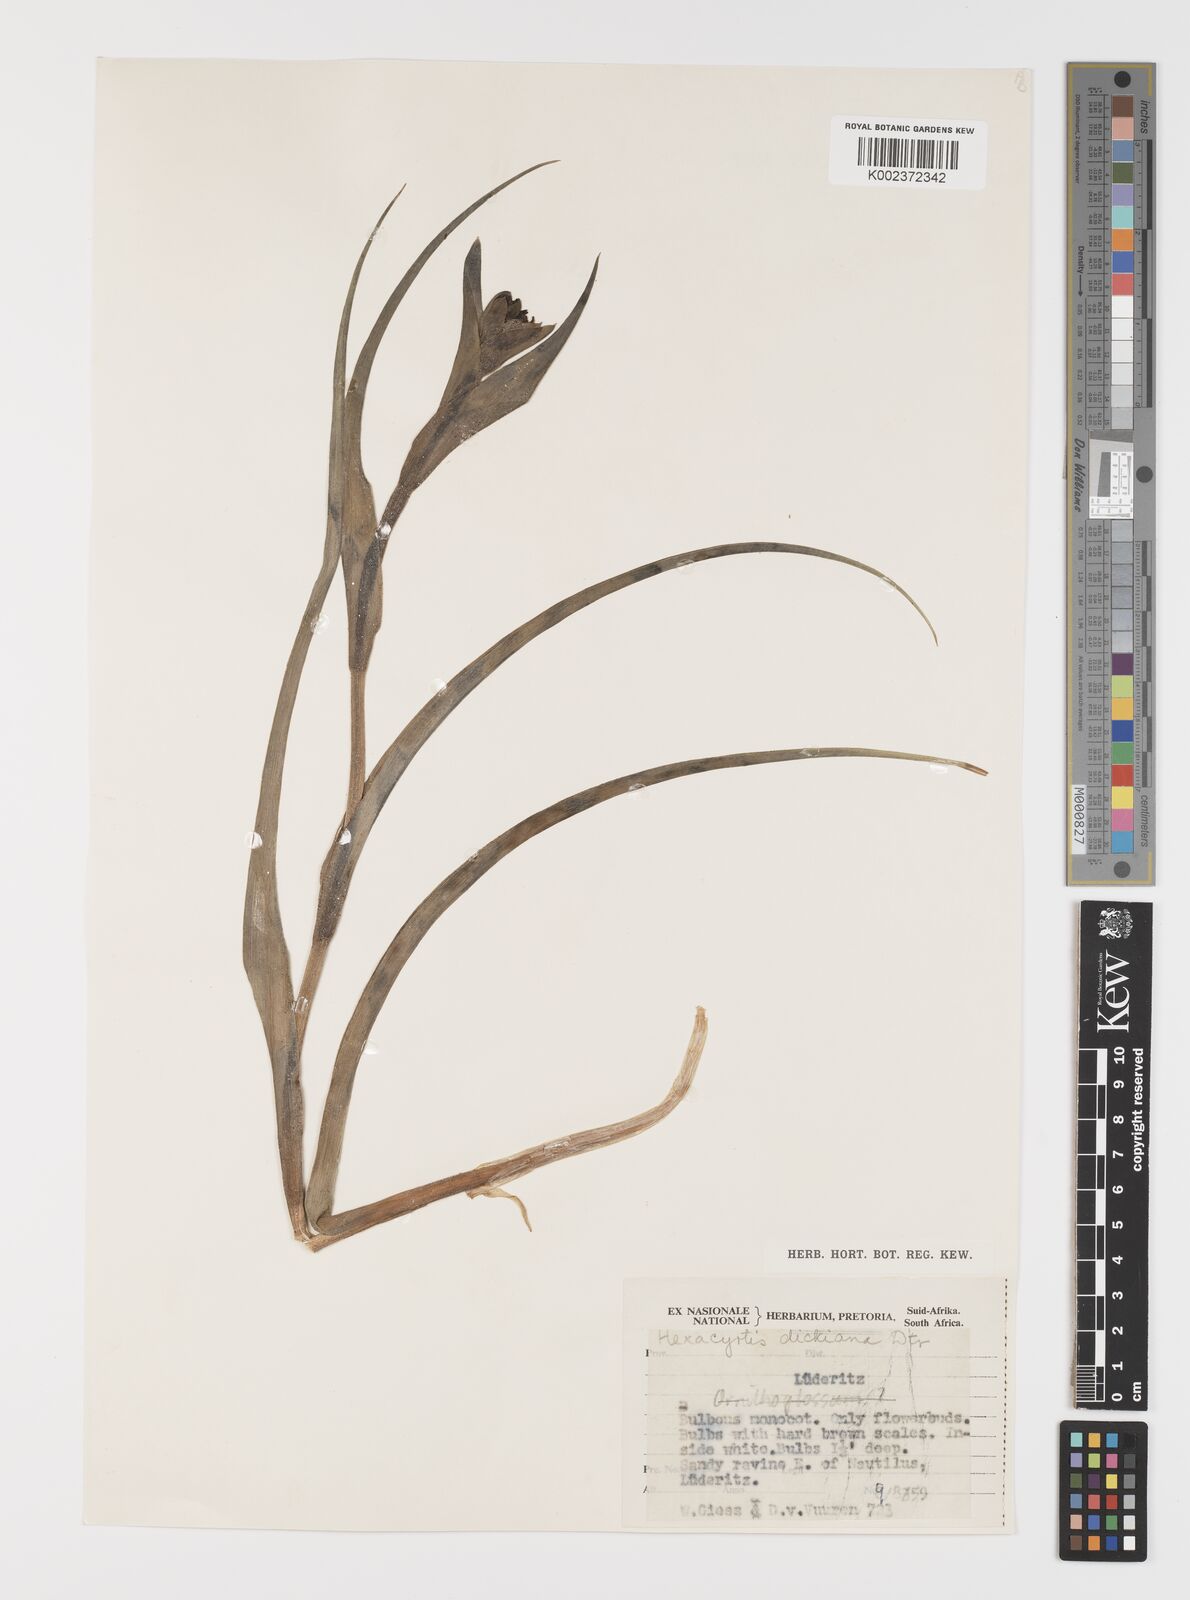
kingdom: Plantae
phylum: Tracheophyta
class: Liliopsida
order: Liliales
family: Colchicaceae
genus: Hexacyrtis
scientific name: Hexacyrtis dickiana
